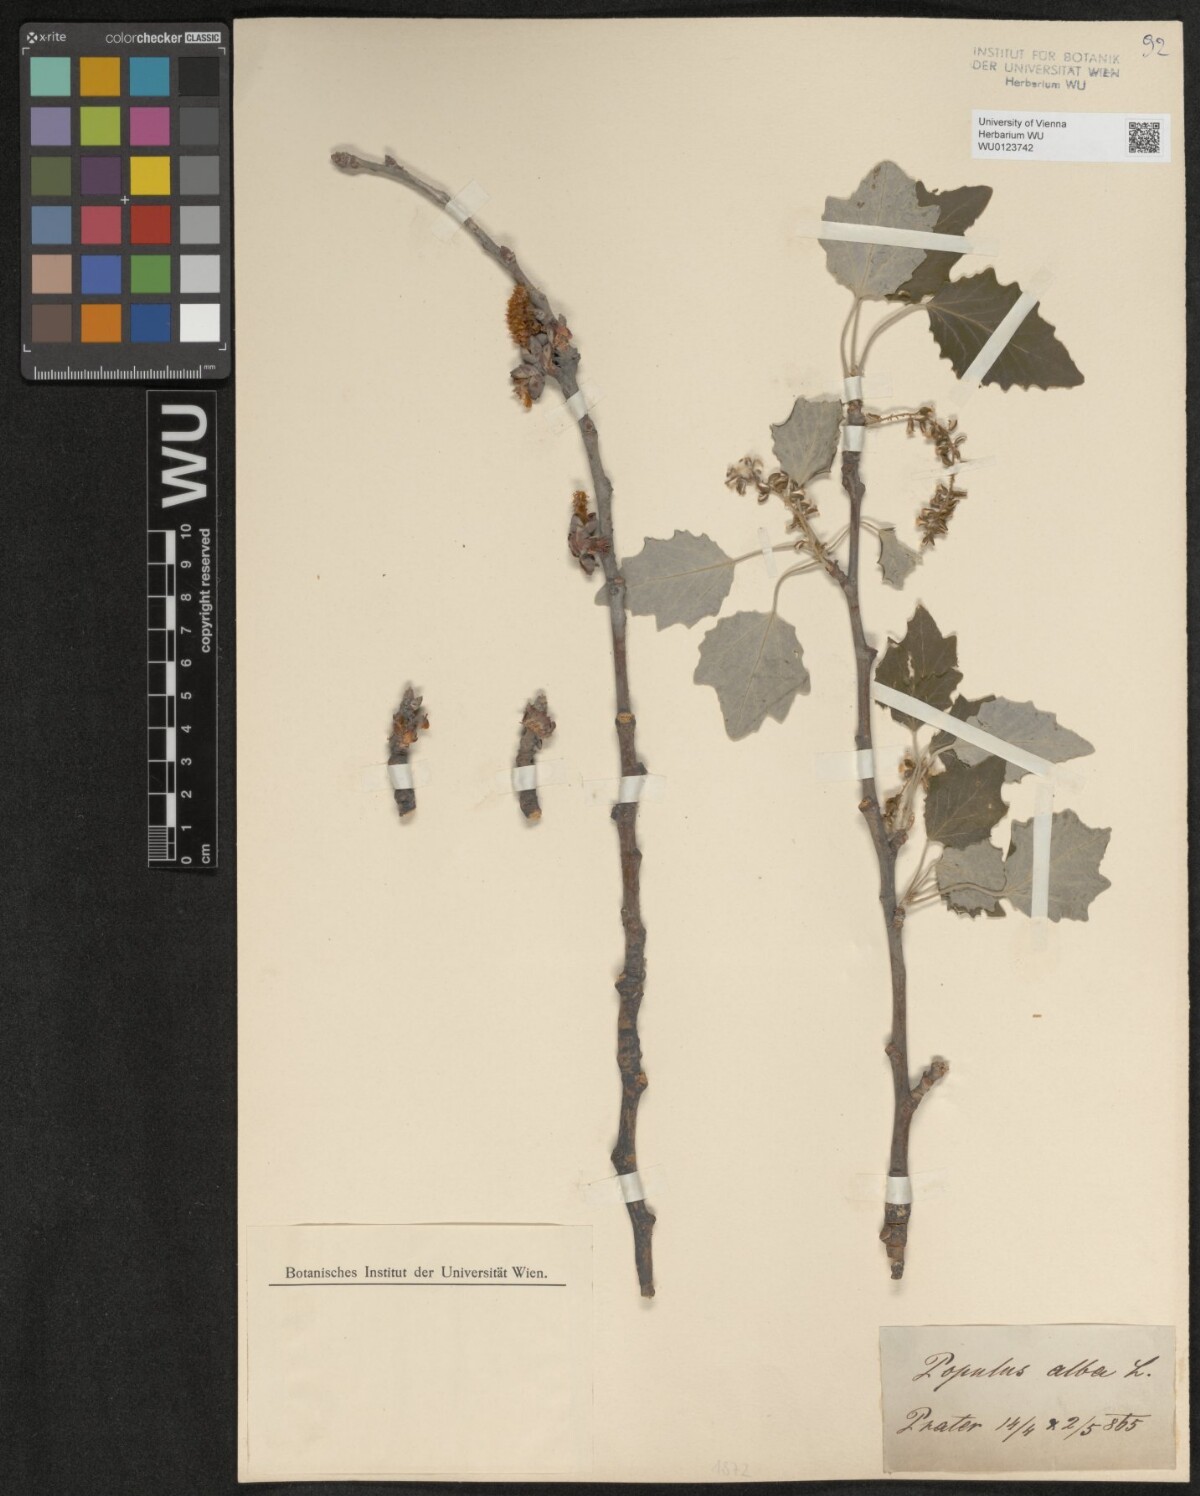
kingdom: Plantae
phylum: Tracheophyta
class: Magnoliopsida
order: Malpighiales
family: Salicaceae
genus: Populus
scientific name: Populus alba
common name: White poplar
